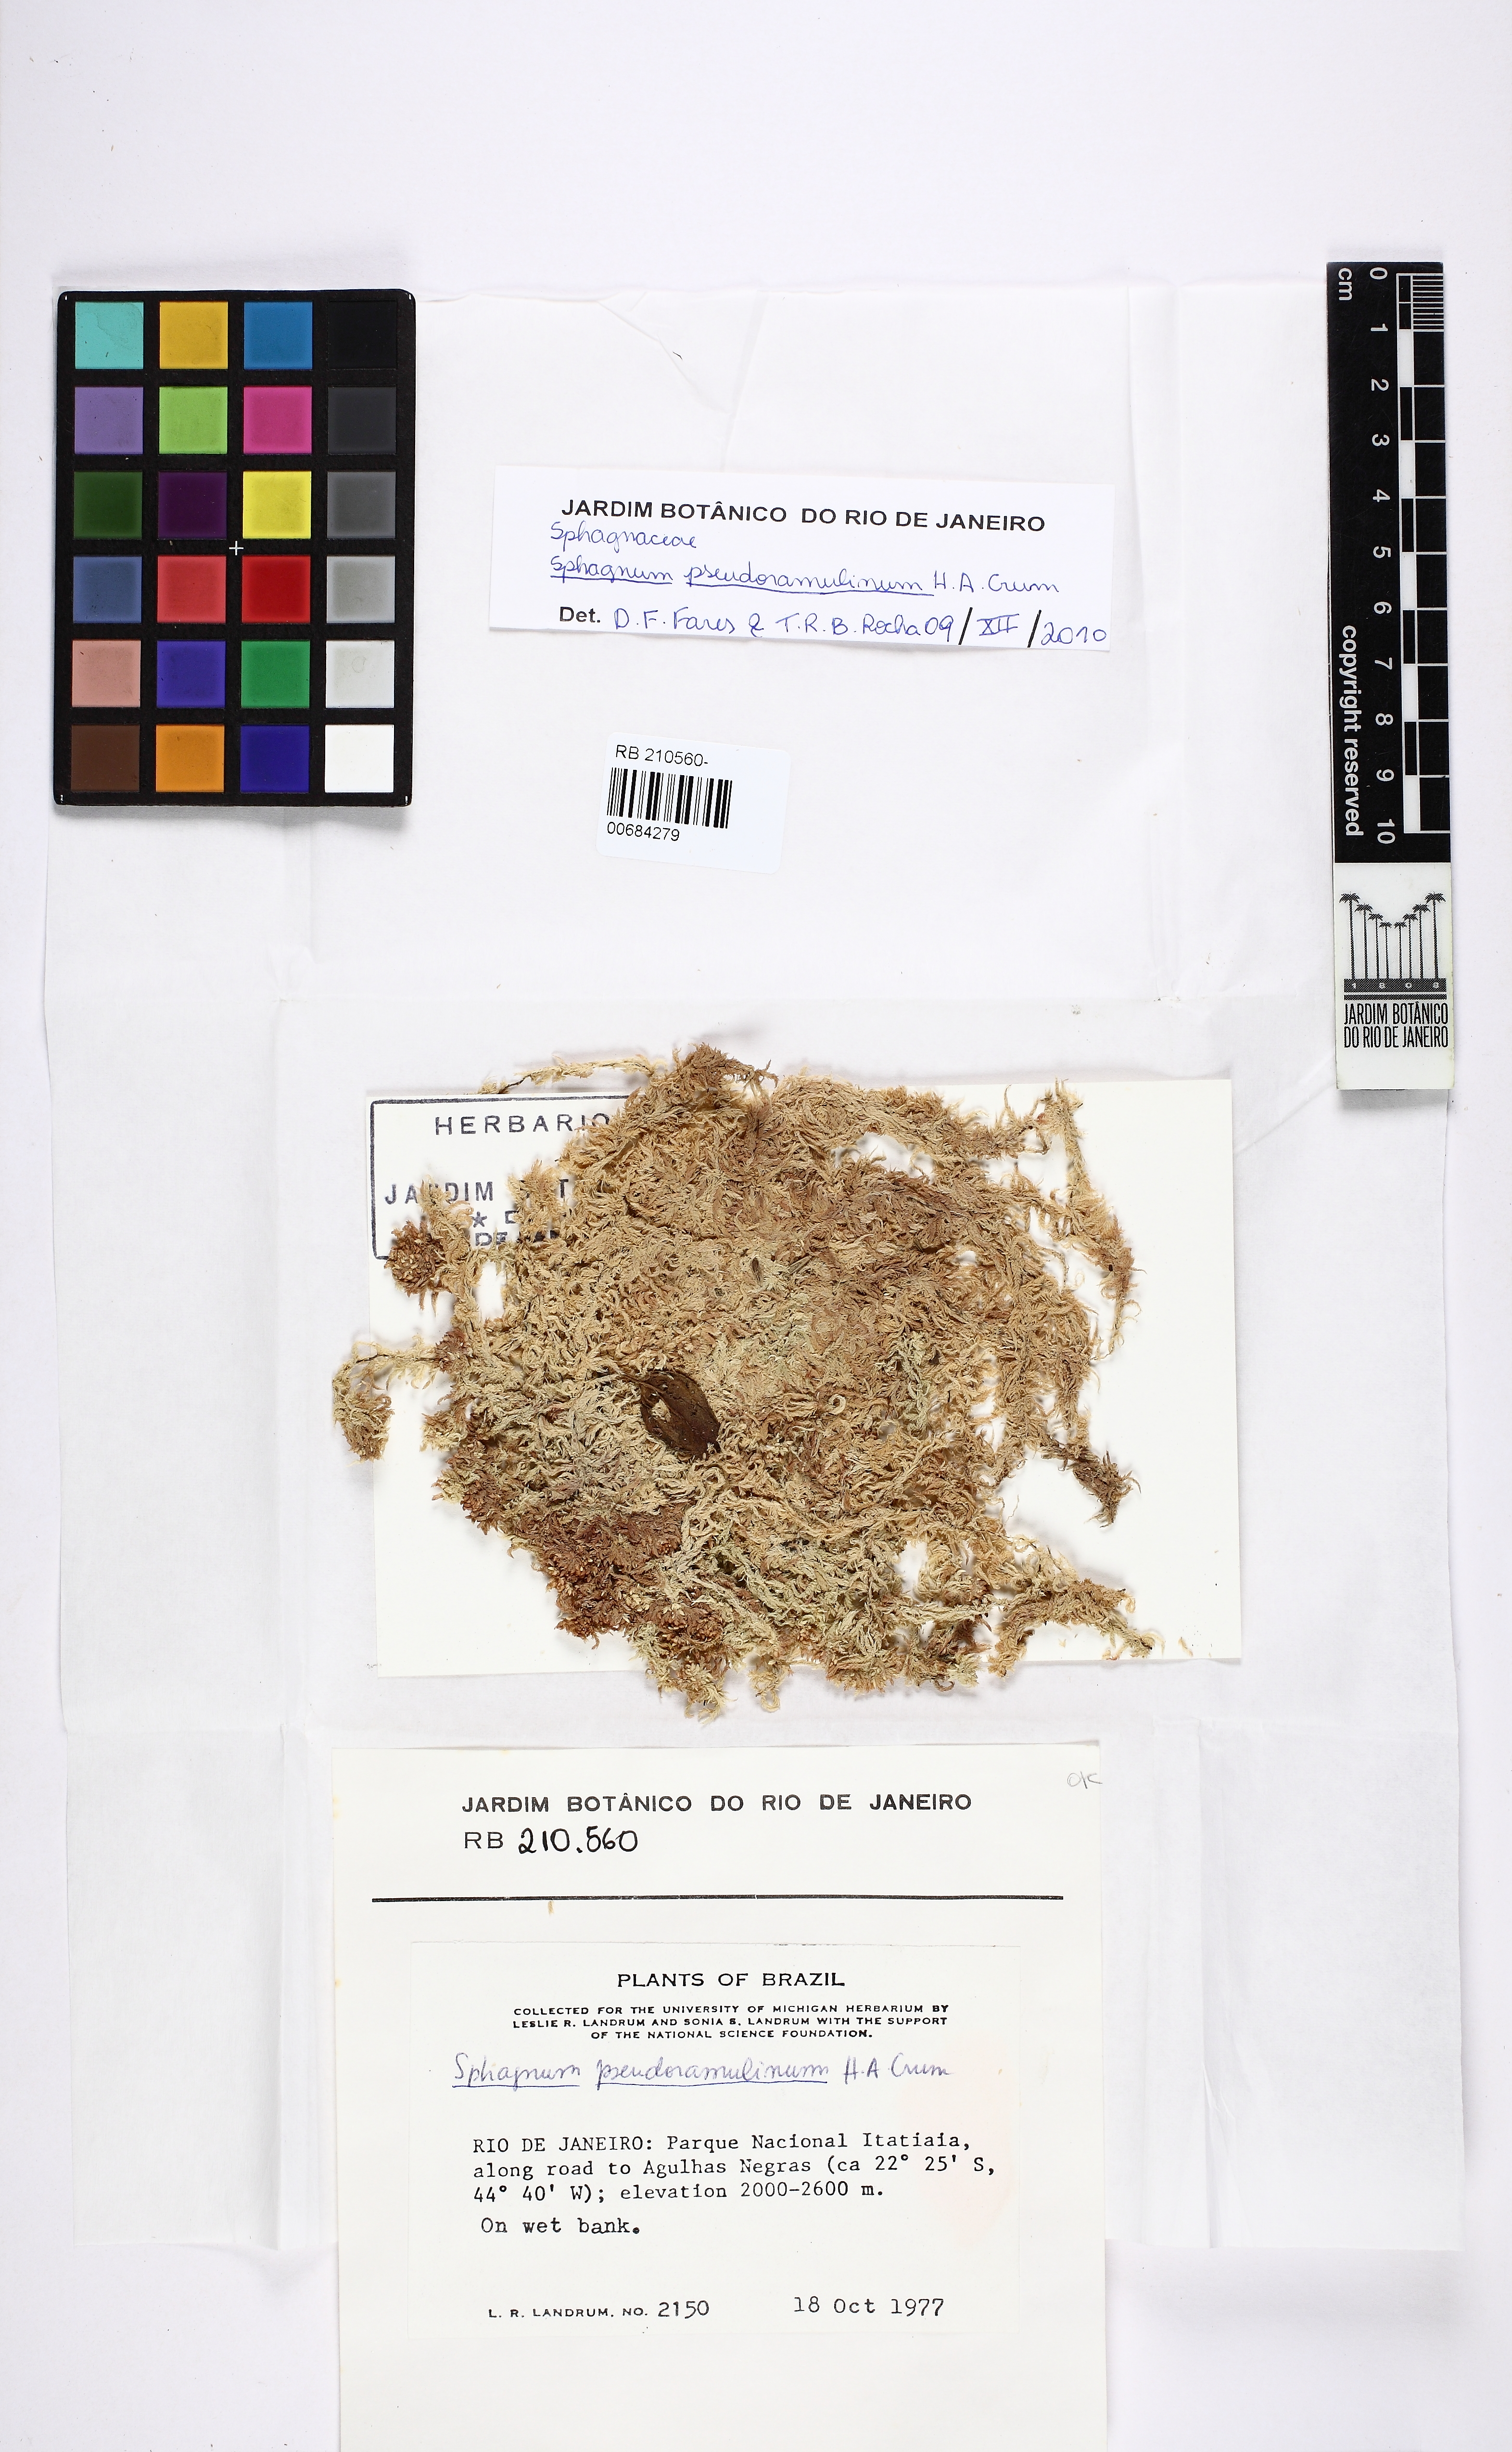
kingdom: Plantae
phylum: Bryophyta
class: Sphagnopsida
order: Sphagnales
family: Sphagnaceae
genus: Sphagnum
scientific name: Sphagnum pseudoramulinum
